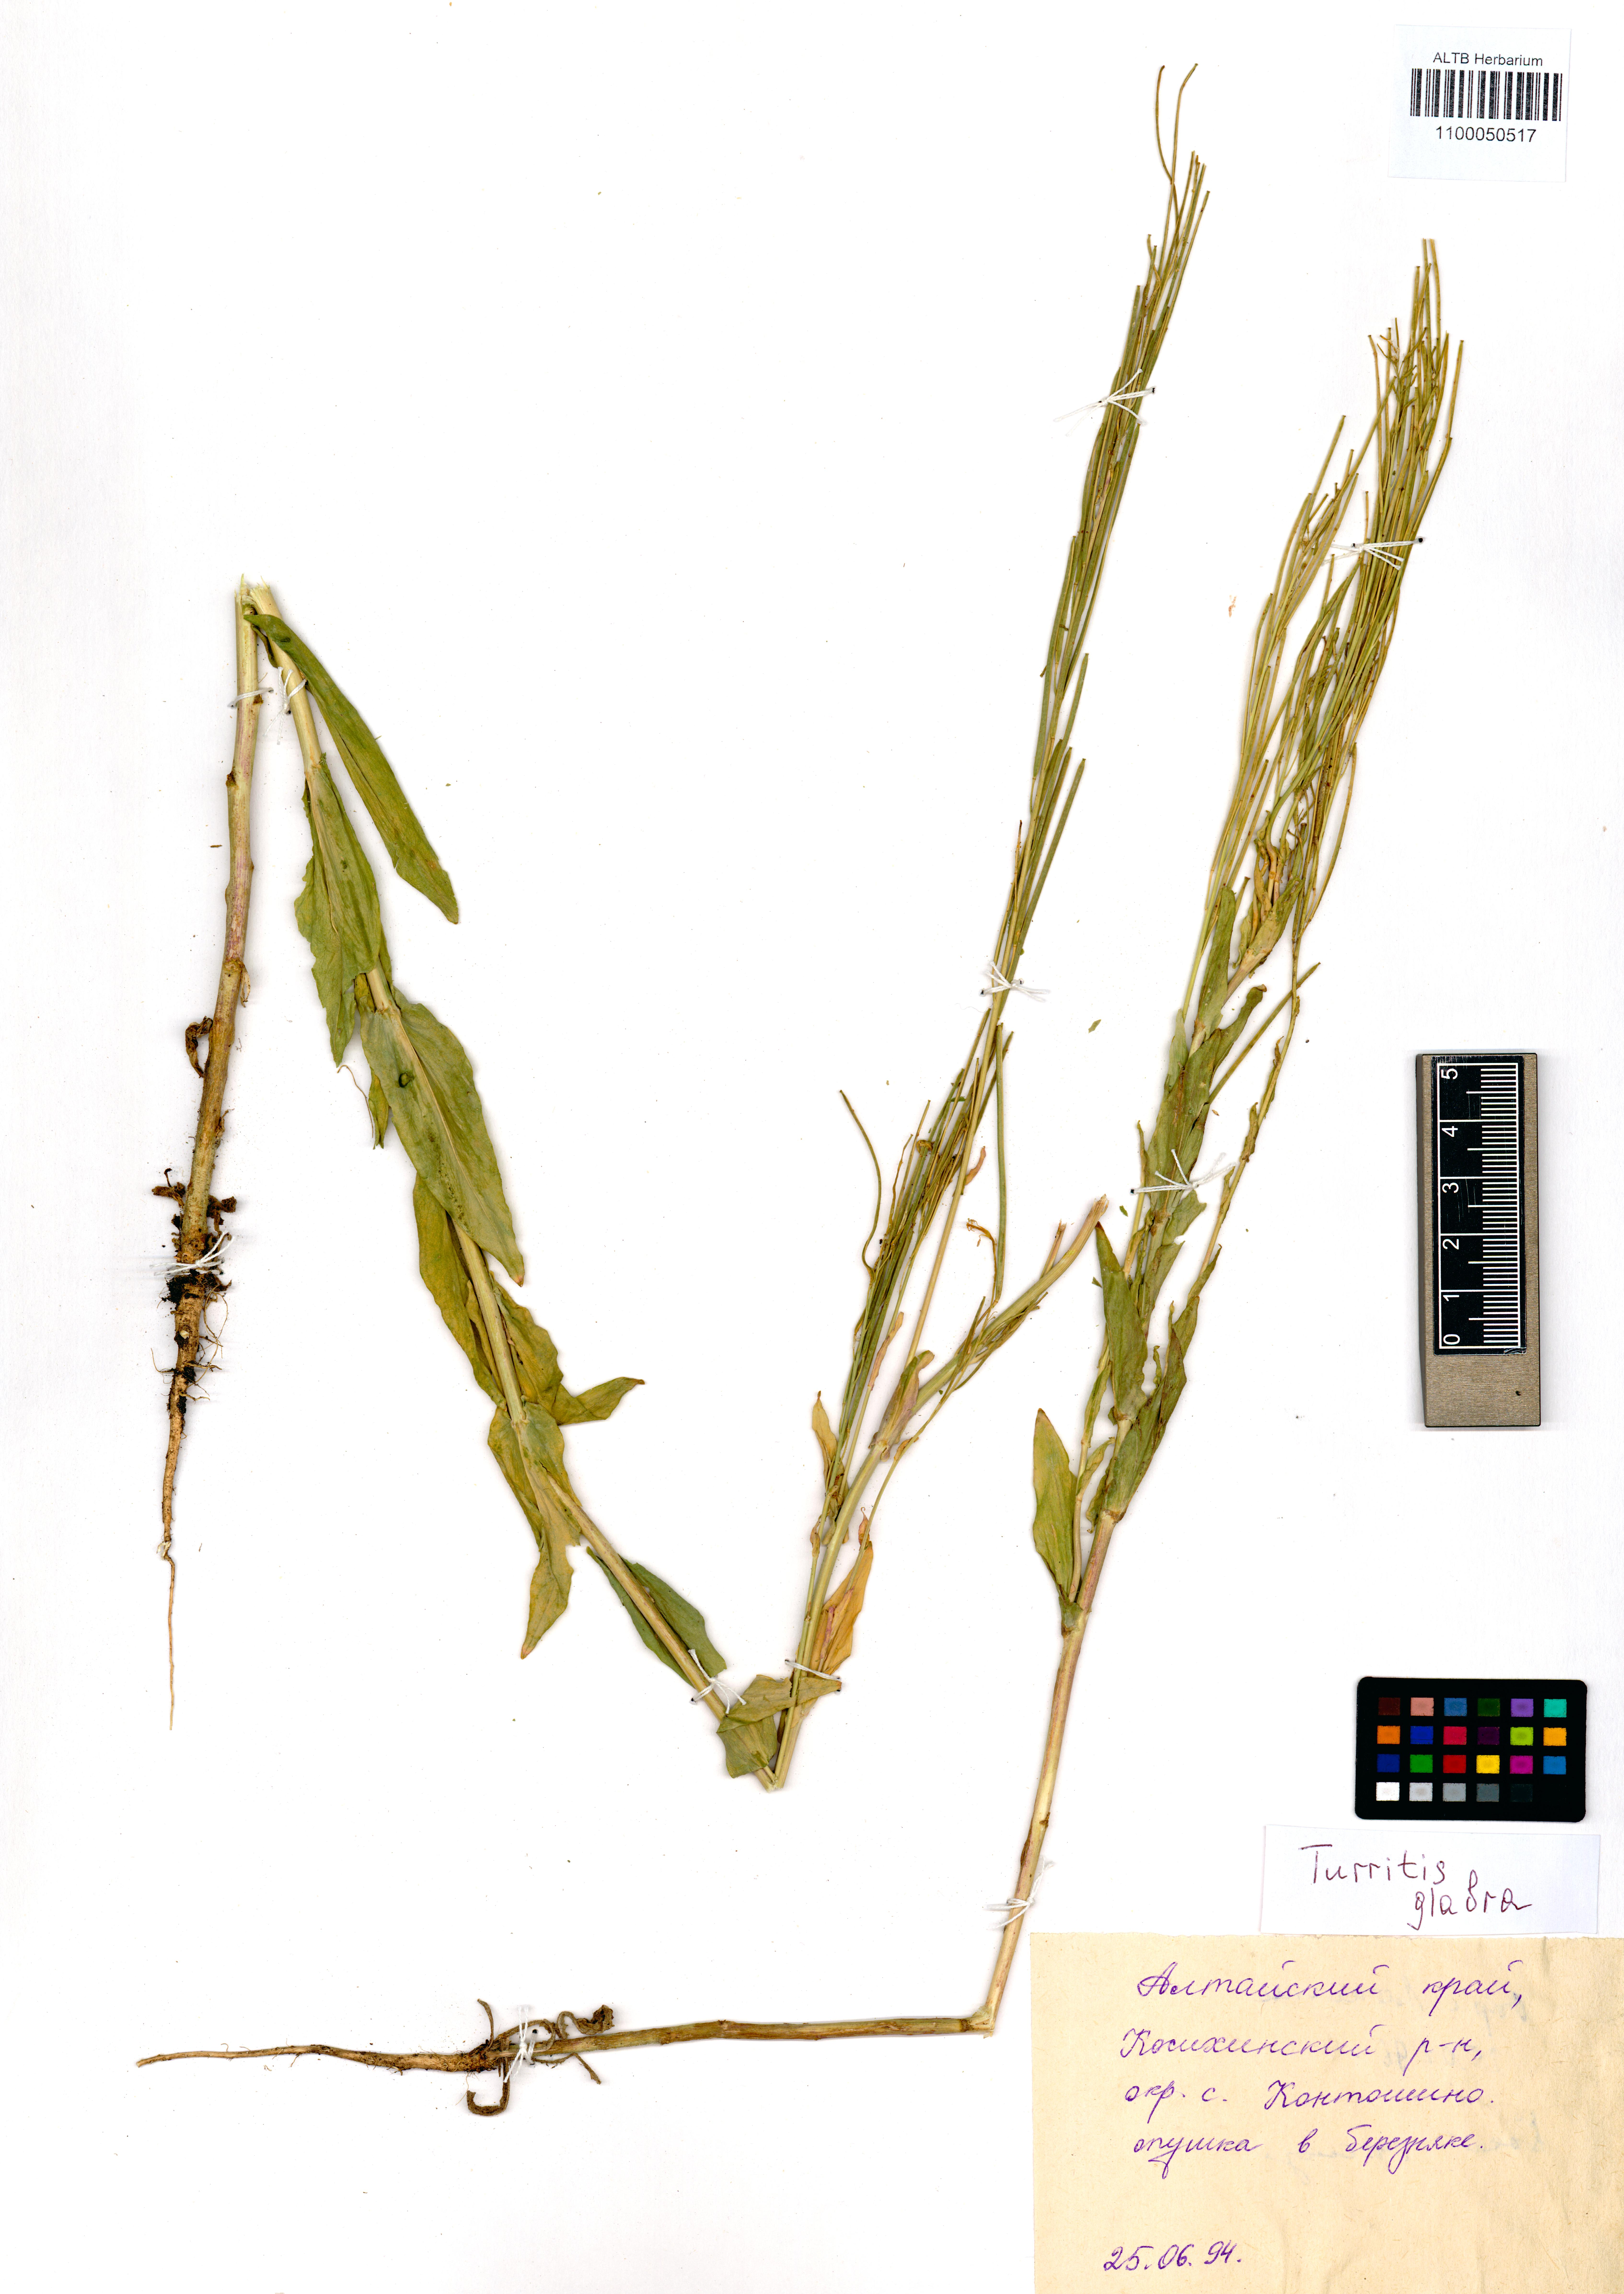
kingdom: Plantae
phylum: Tracheophyta
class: Magnoliopsida
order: Brassicales
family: Brassicaceae
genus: Turritis
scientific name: Turritis glabra
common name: Tower rockcress
